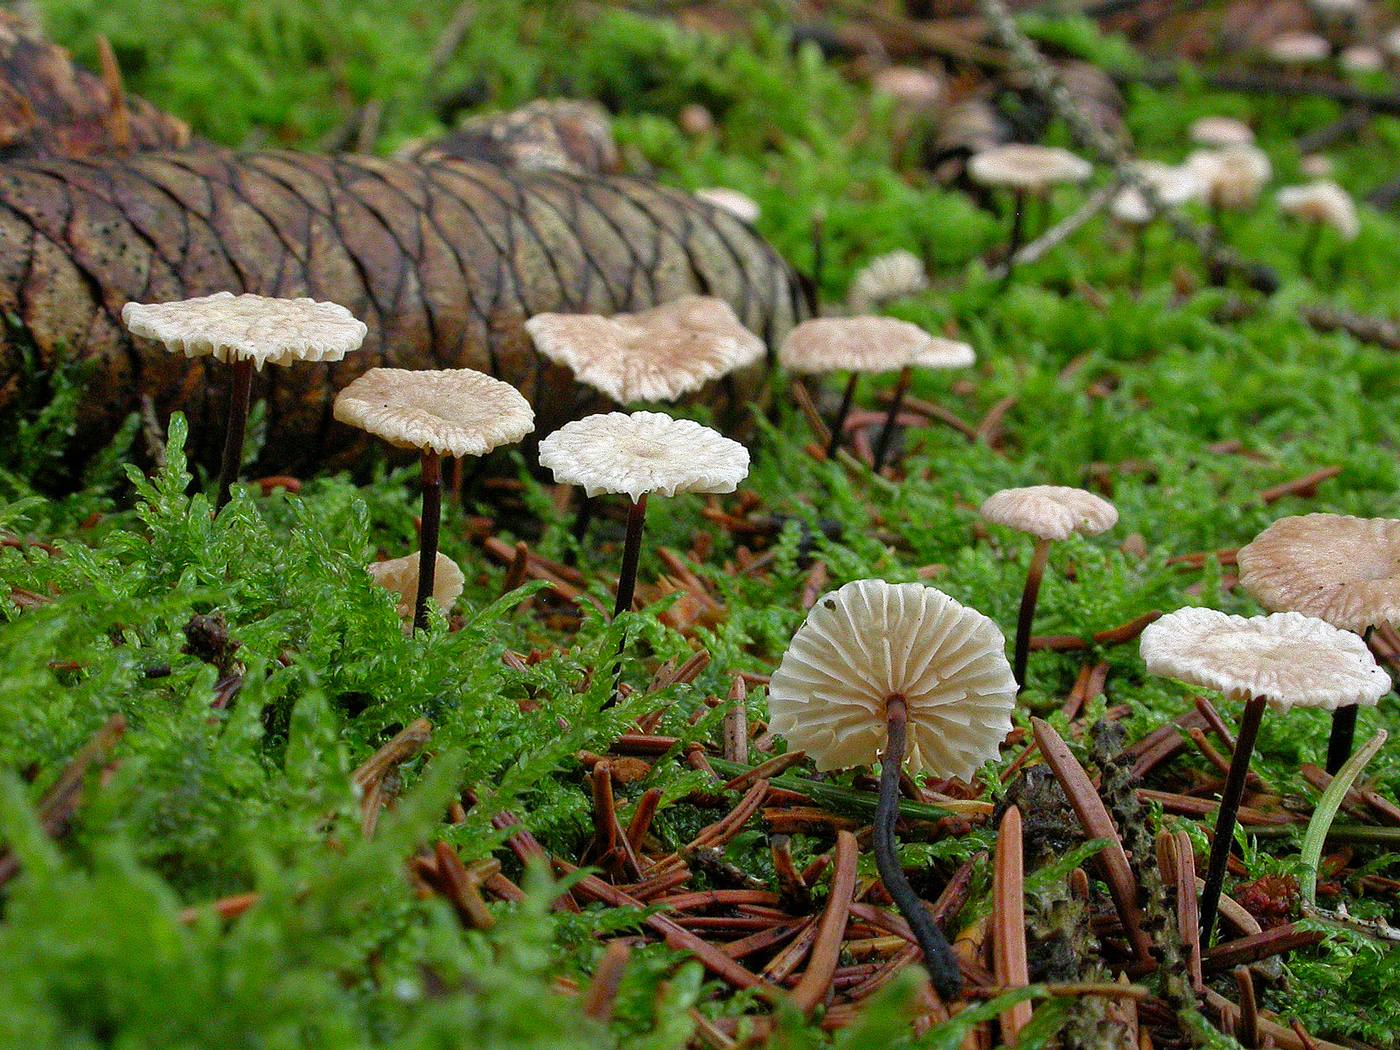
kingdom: Fungi
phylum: Basidiomycota
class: Agaricomycetes
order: Agaricales
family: Omphalotaceae
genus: Paragymnopus
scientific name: Paragymnopus perforans
